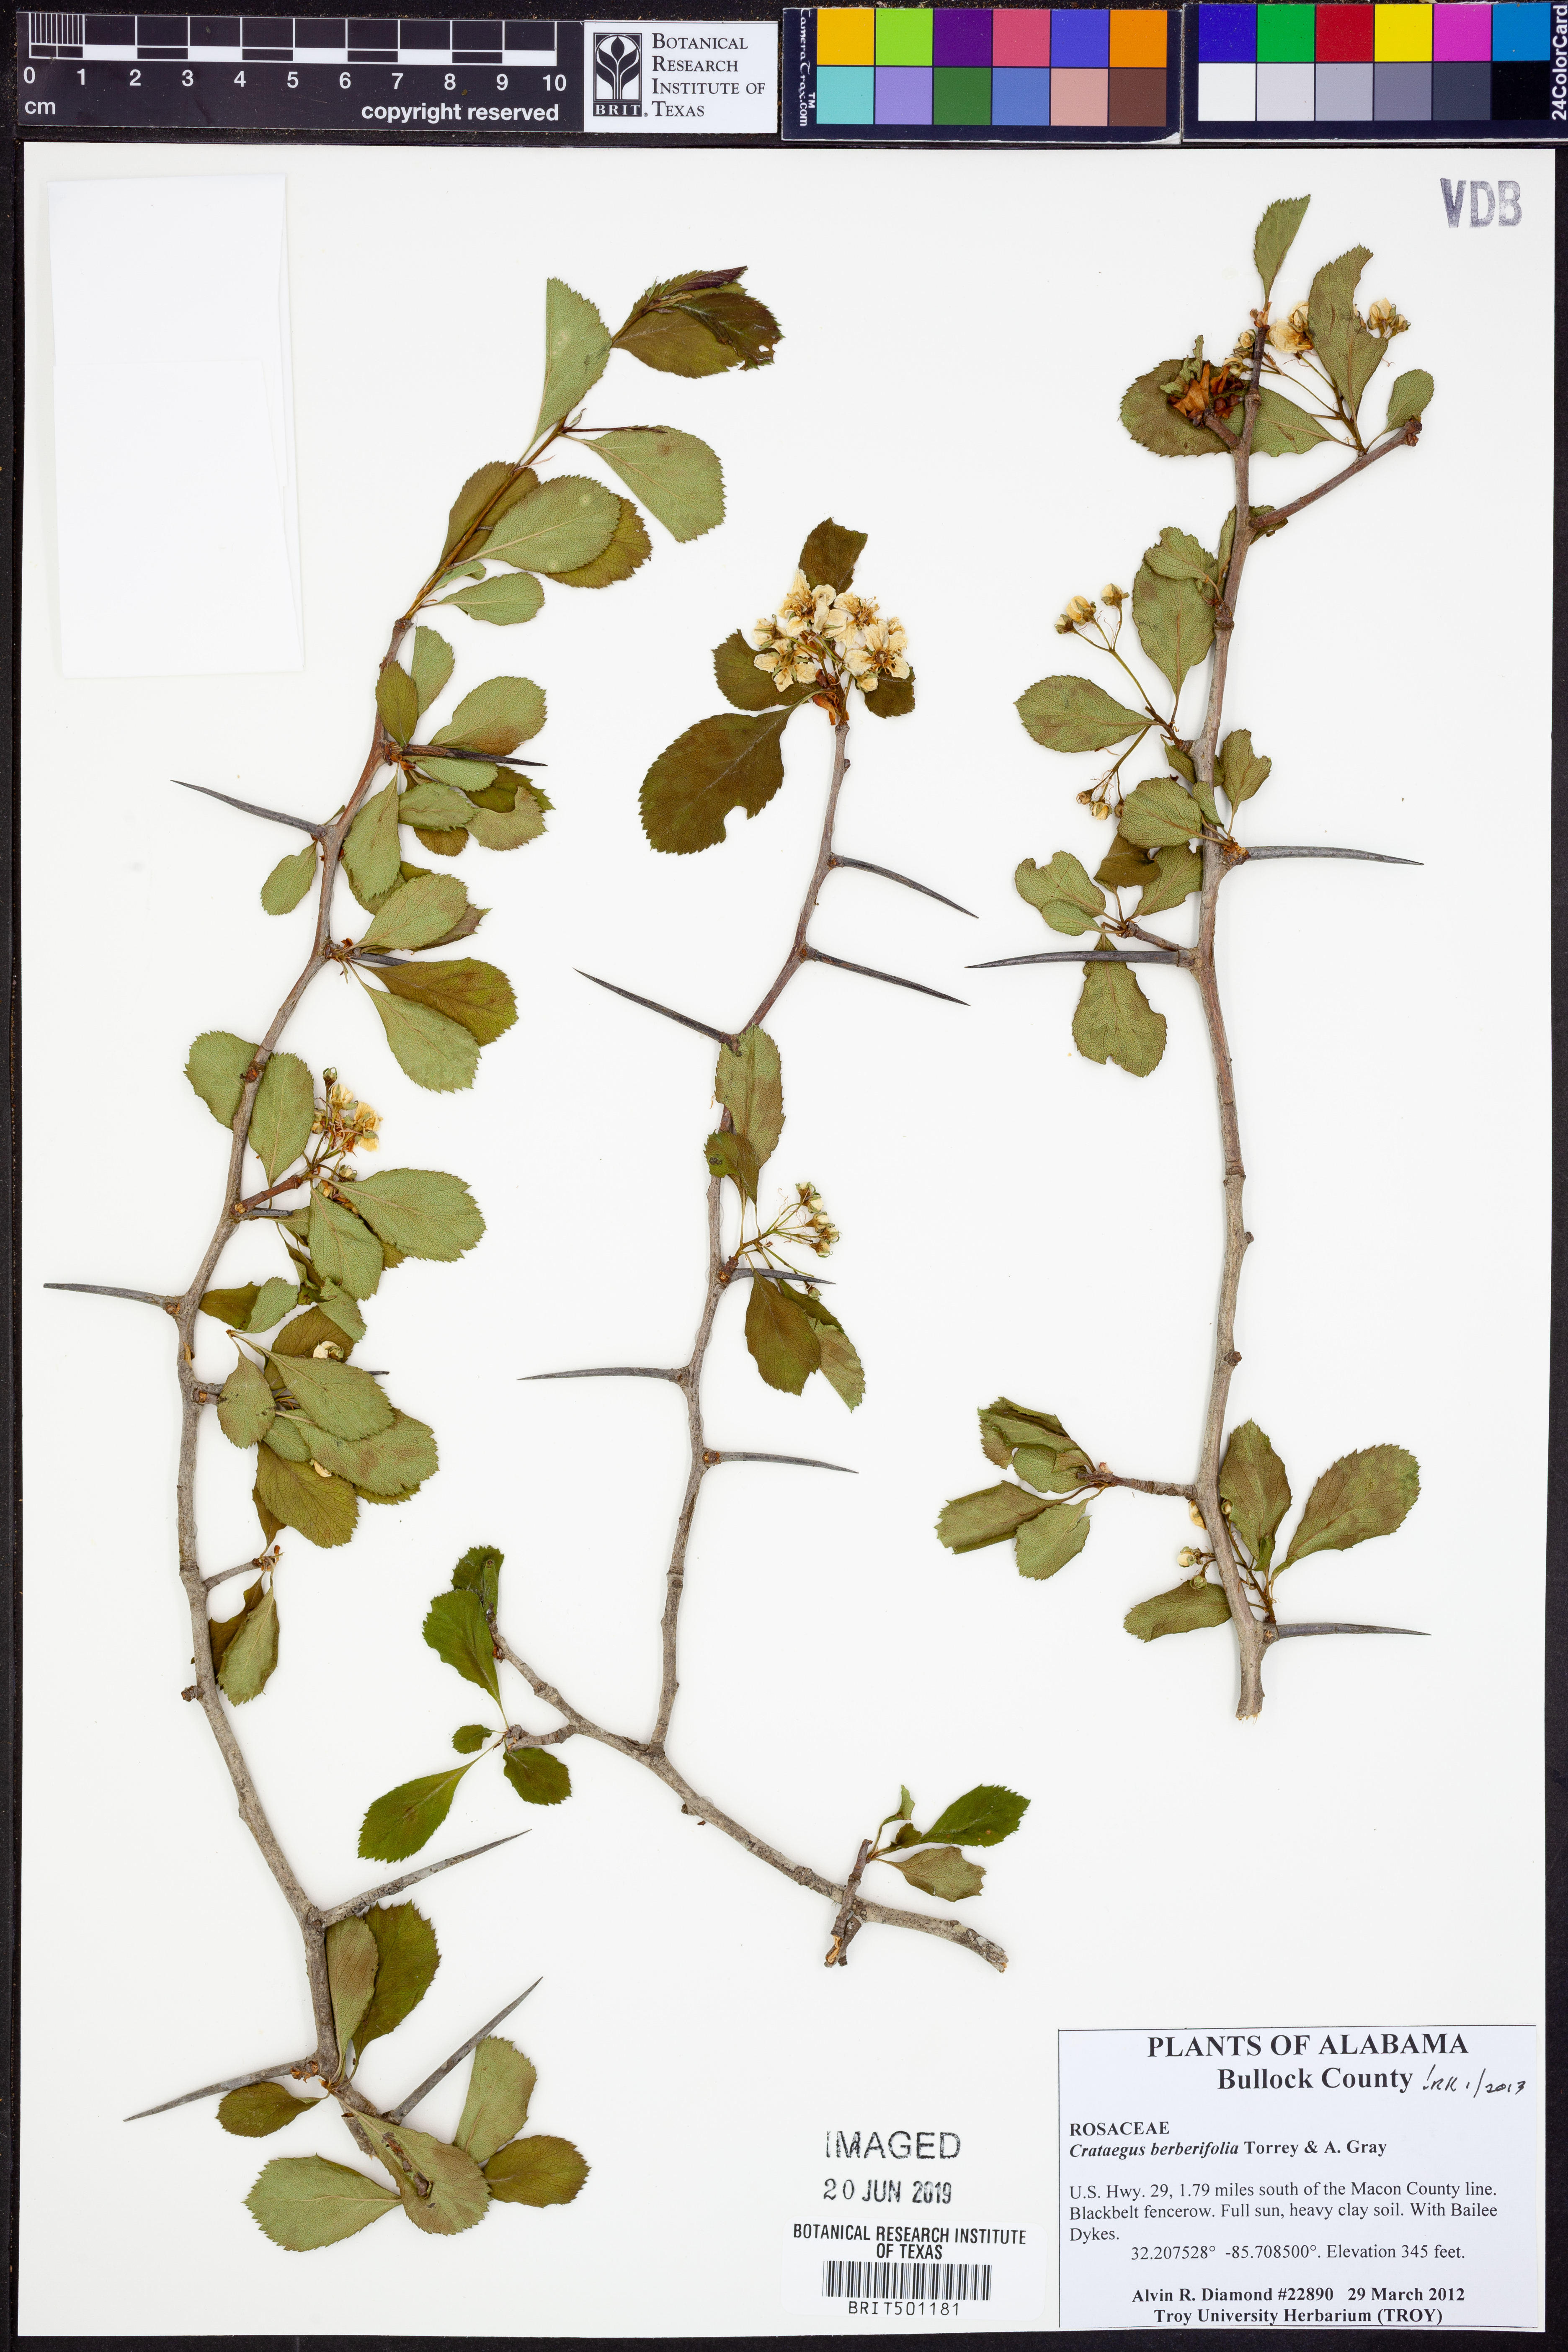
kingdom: Plantae
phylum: Tracheophyta
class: Magnoliopsida
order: Rosales
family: Rosaceae
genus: Crataegus
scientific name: Crataegus berberifolia
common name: Barberry hawthorn
